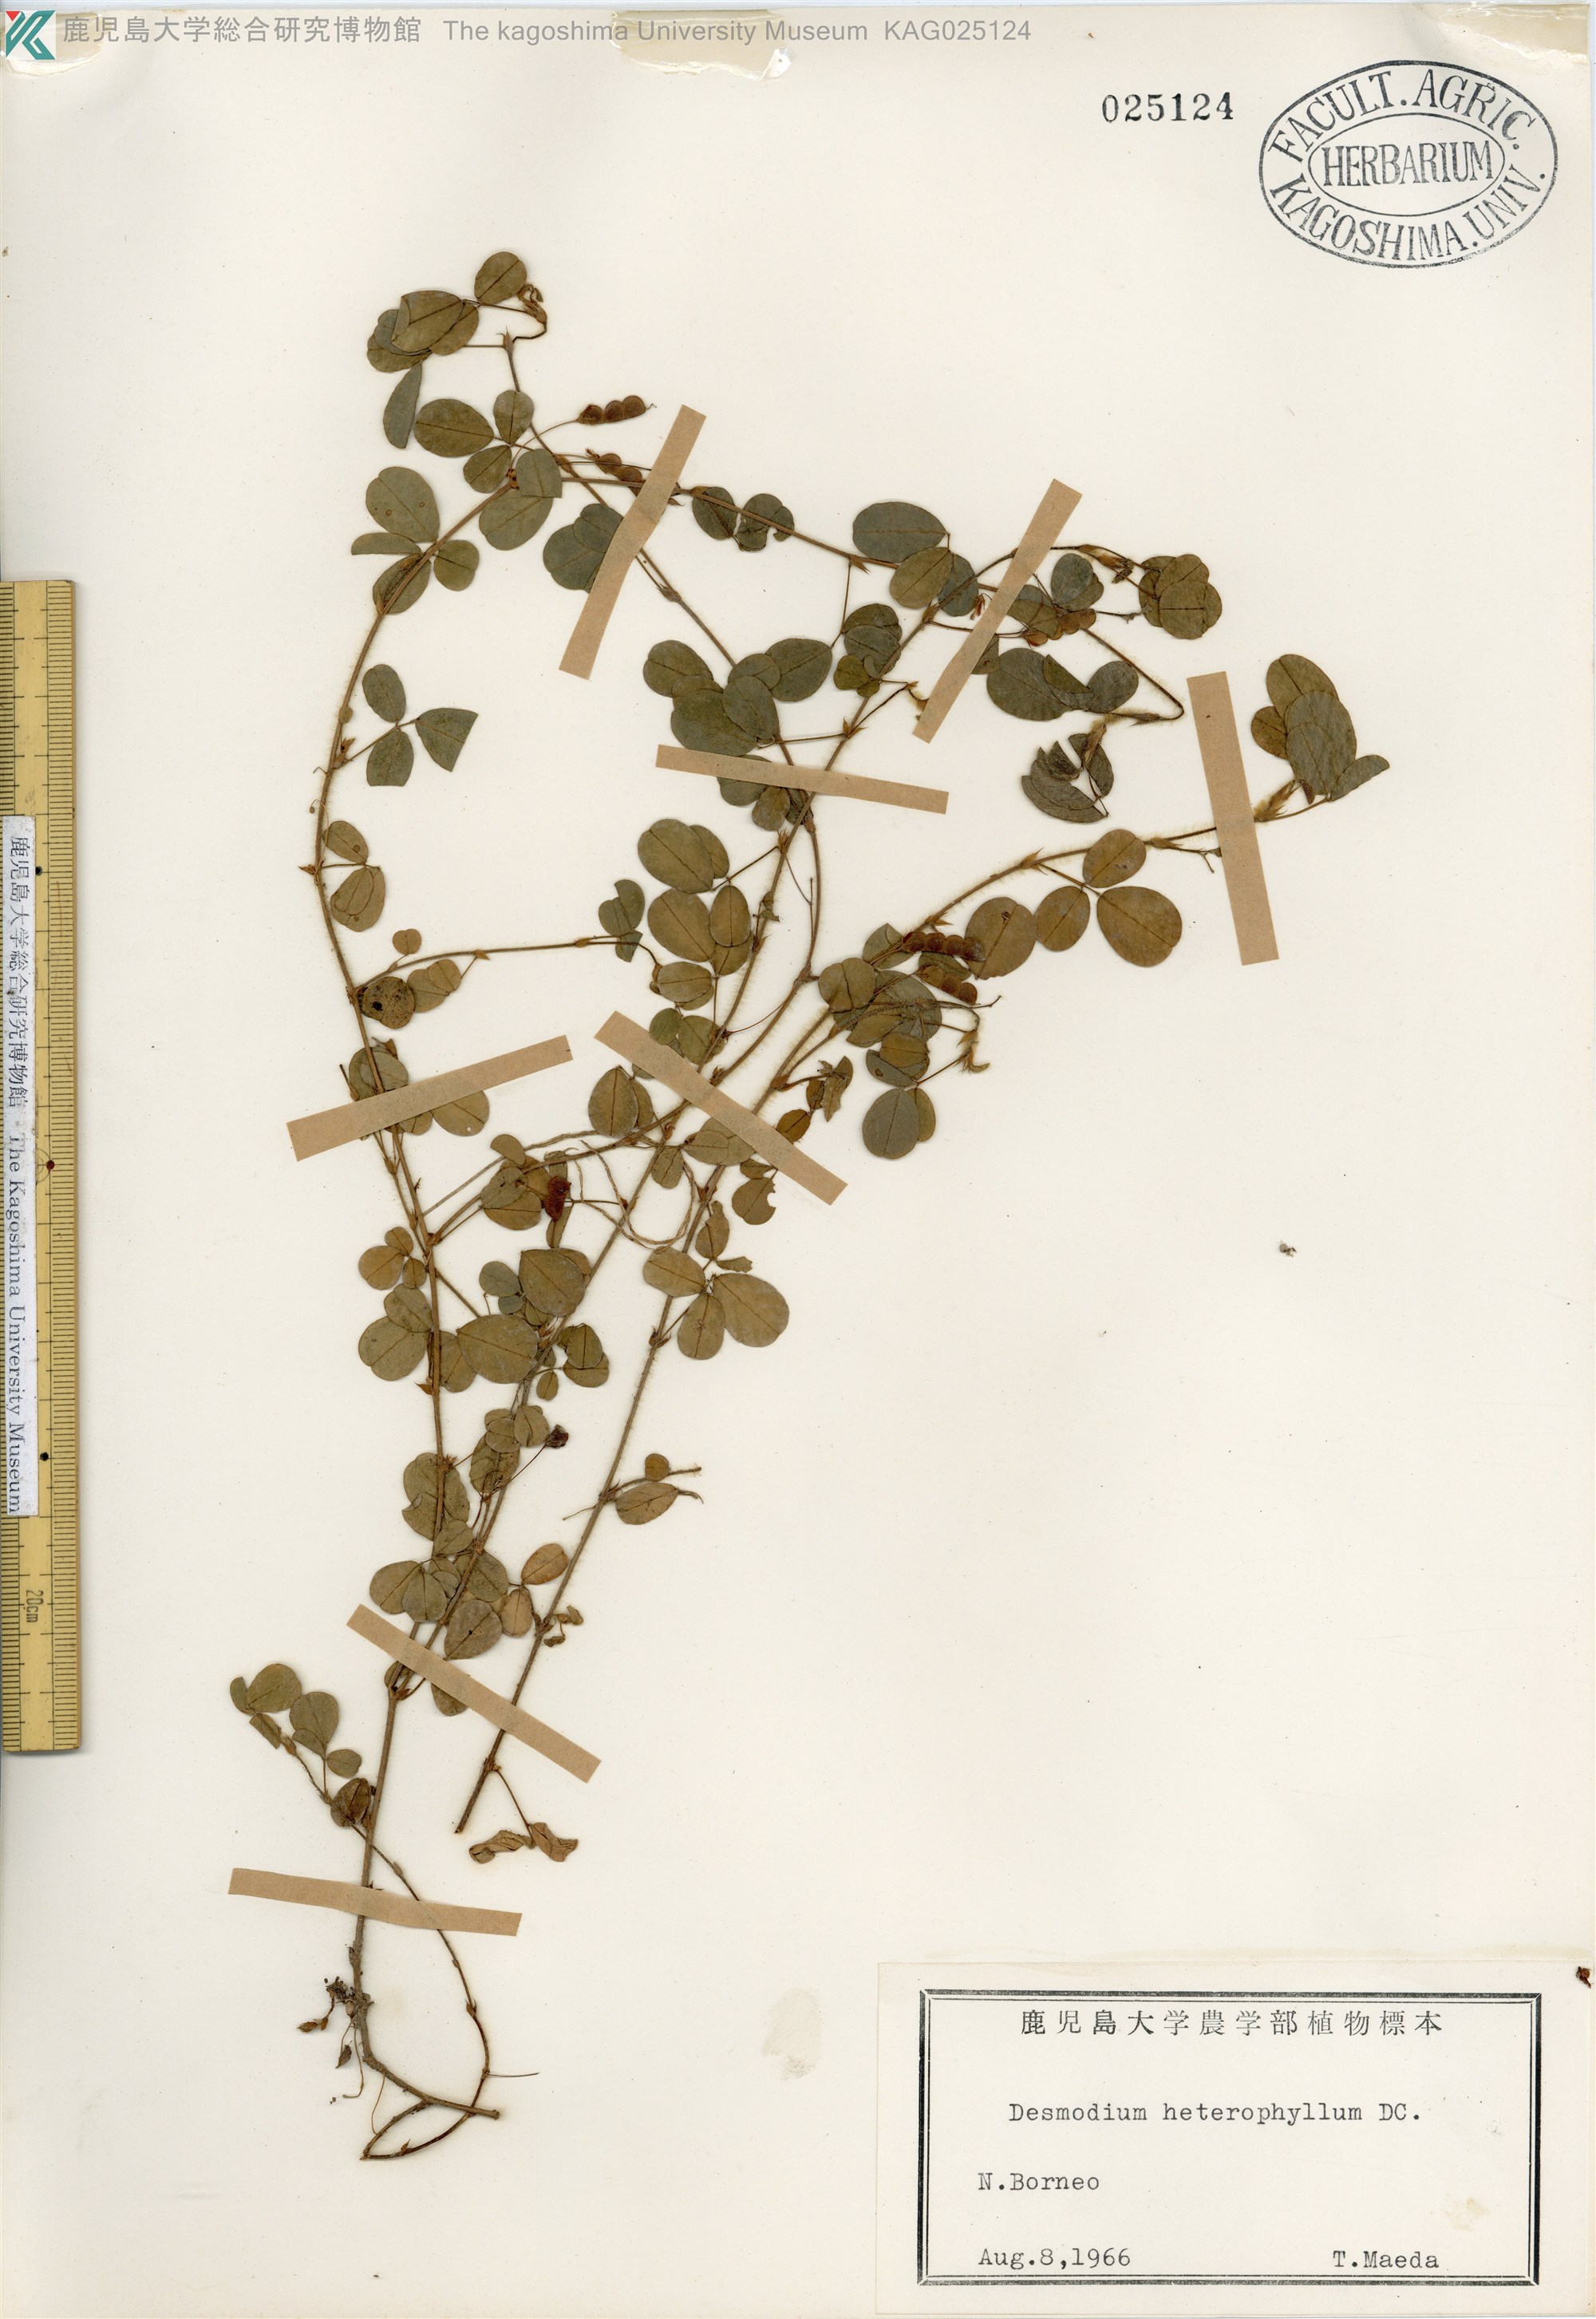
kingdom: Plantae
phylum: Tracheophyta
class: Magnoliopsida
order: Fabales
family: Fabaceae
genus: Desmodium
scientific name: Desmodium heterophyllum
